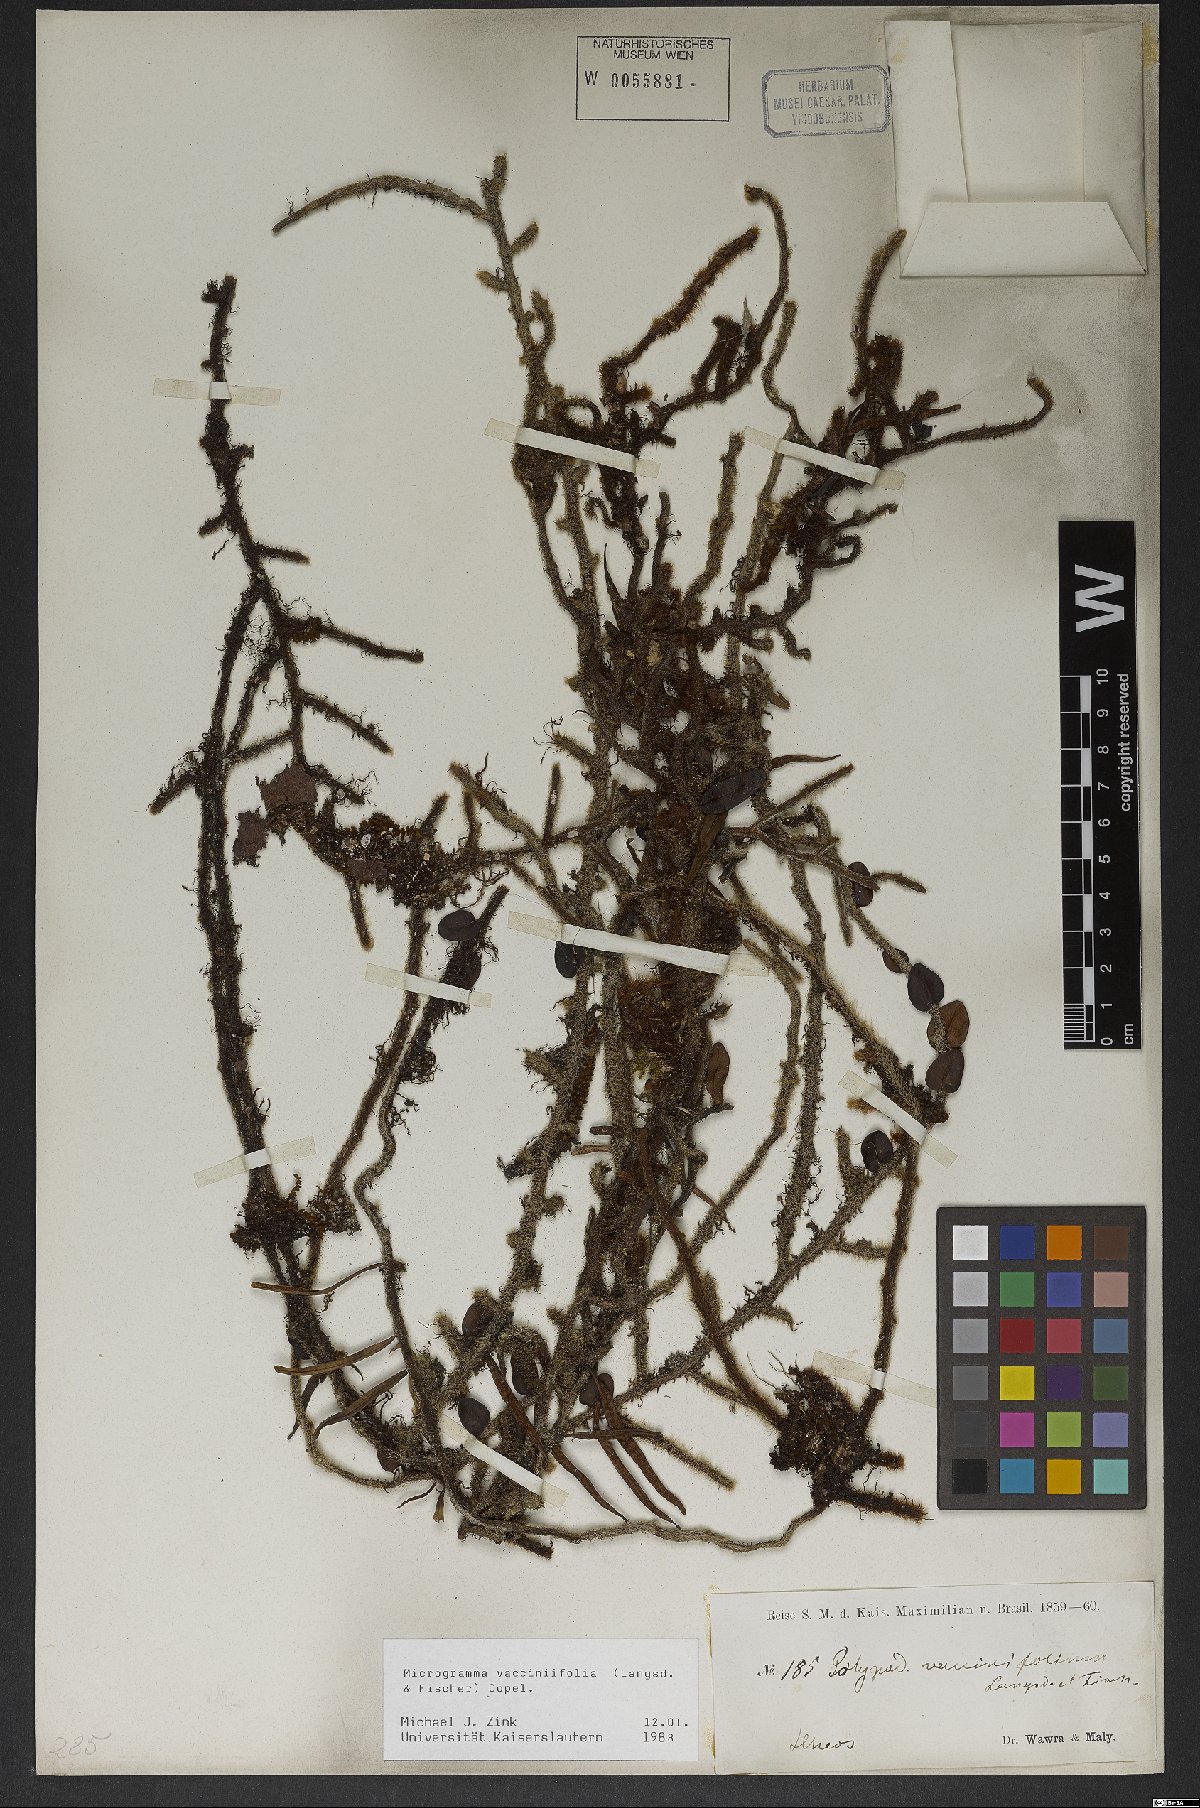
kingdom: Plantae
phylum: Tracheophyta
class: Polypodiopsida
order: Polypodiales
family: Polypodiaceae
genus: Microgramma
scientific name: Microgramma vaccinifolia
